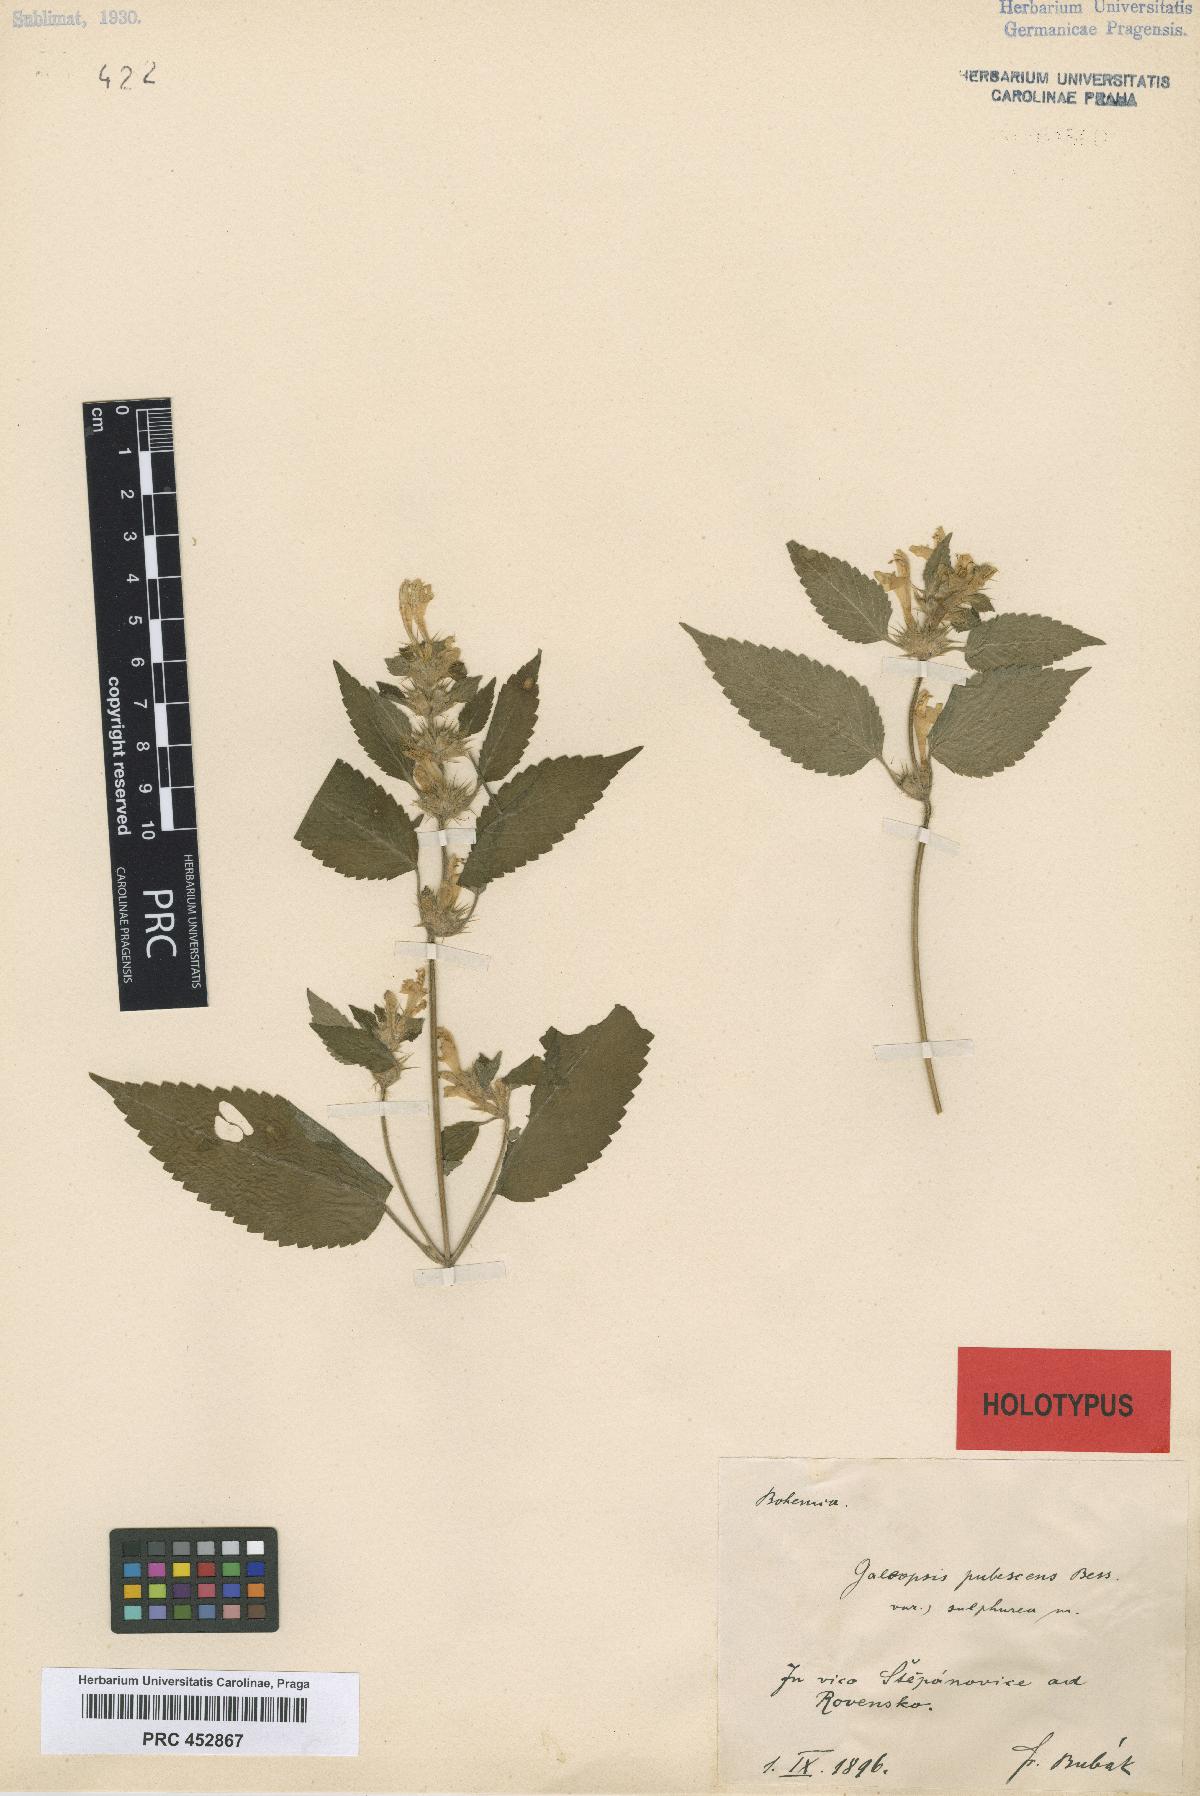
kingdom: Plantae
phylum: Tracheophyta
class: Magnoliopsida
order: Lamiales
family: Lamiaceae
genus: Galeopsis
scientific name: Galeopsis pubescens
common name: Downy hemp-nettle
